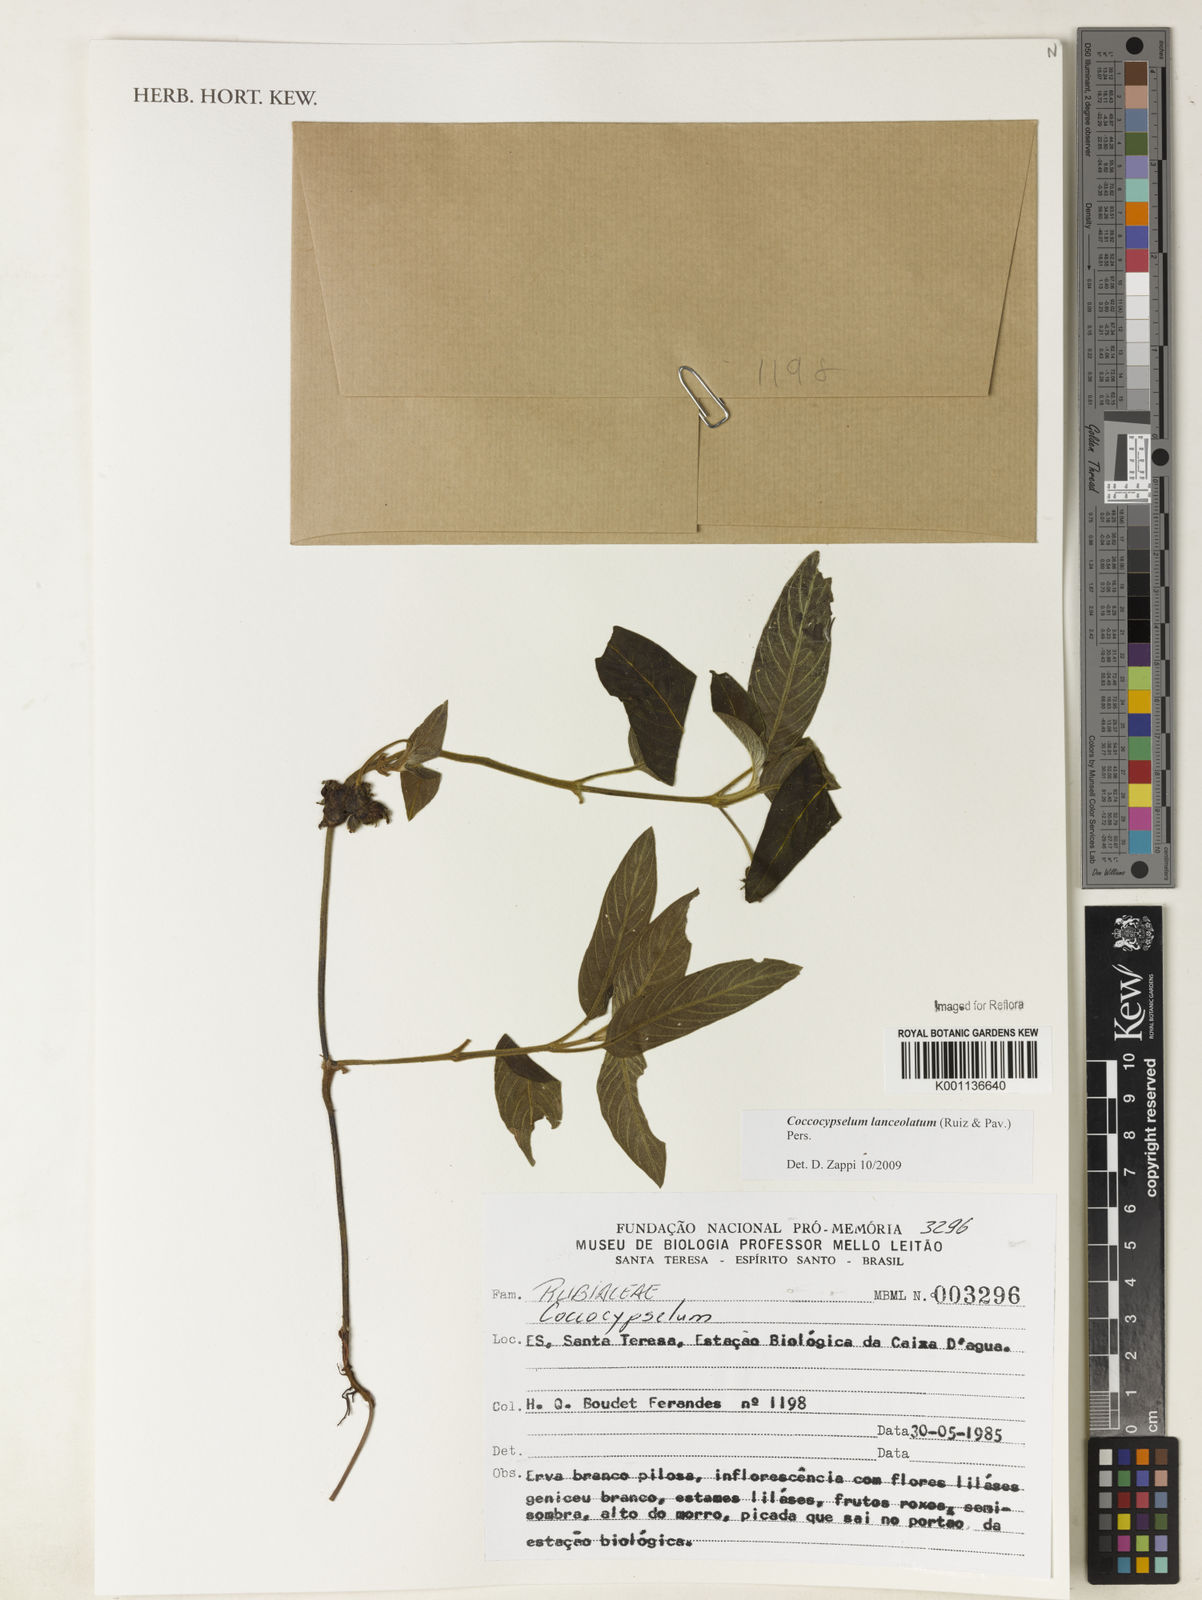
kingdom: Plantae
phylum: Tracheophyta
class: Magnoliopsida
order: Gentianales
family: Rubiaceae
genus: Coccocypselum
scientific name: Coccocypselum lanceolatum
